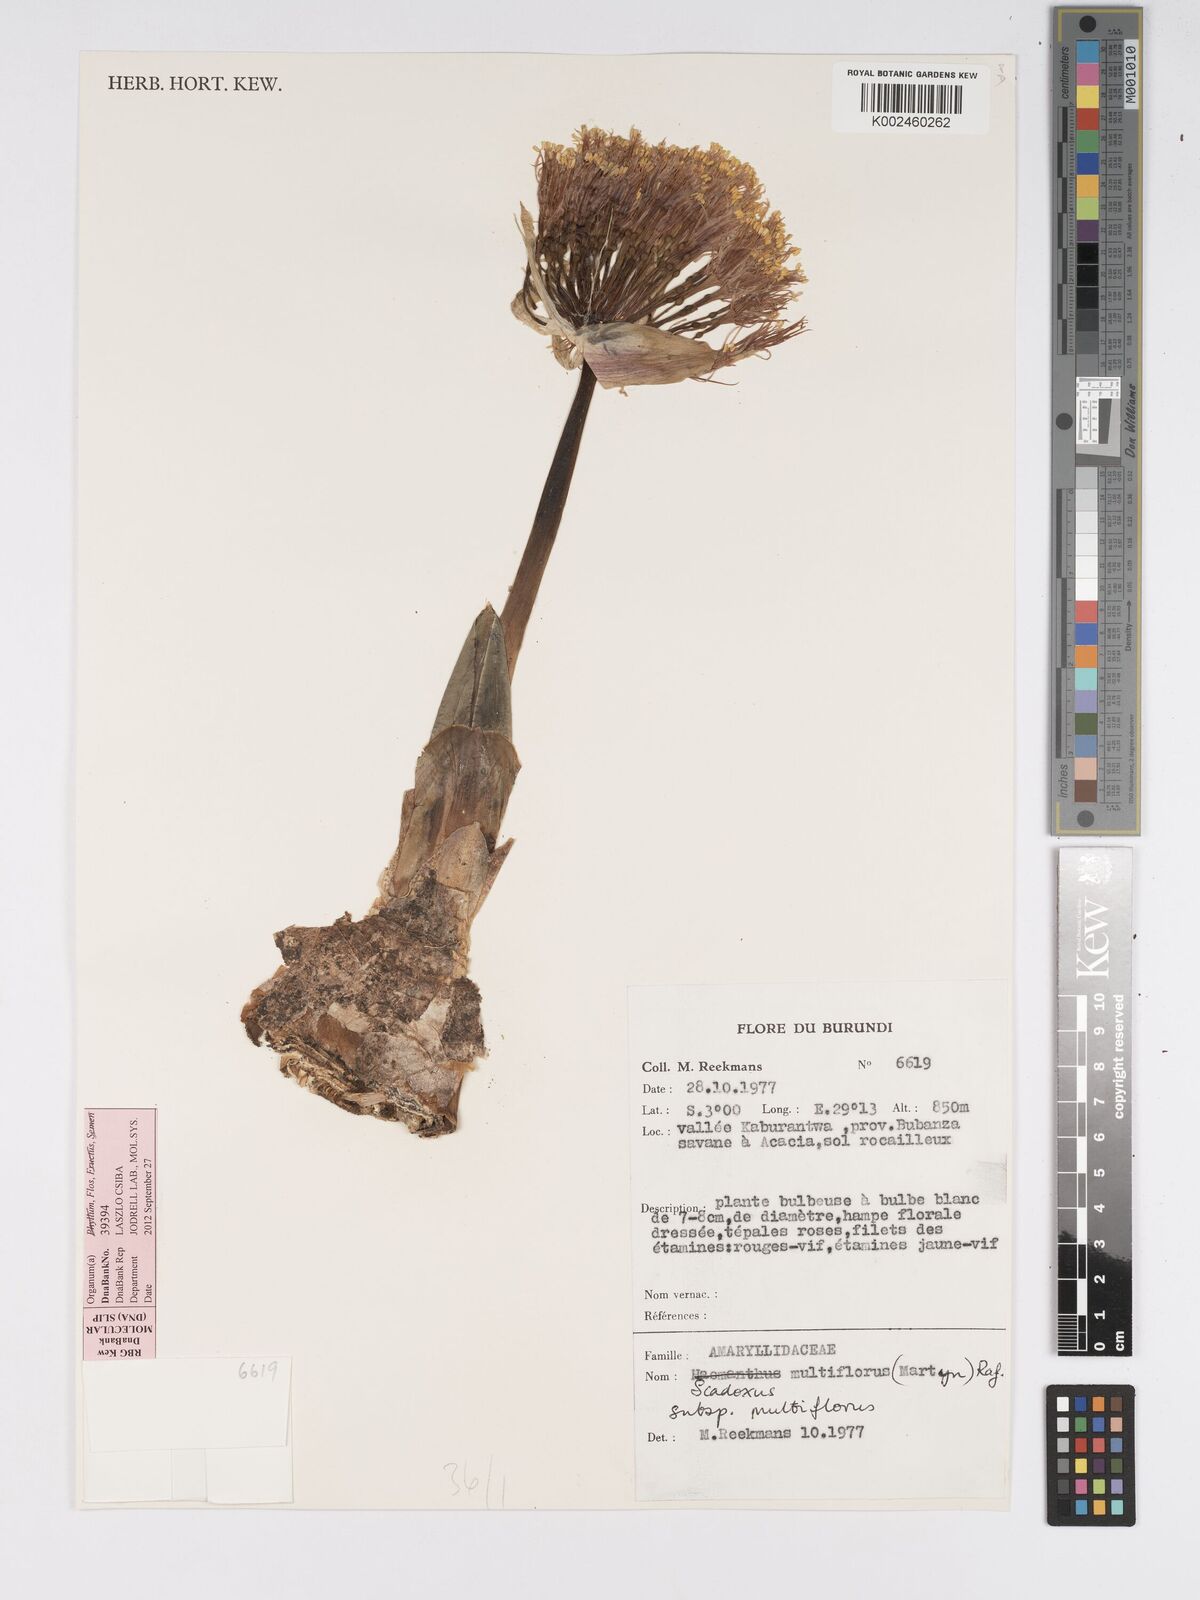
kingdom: Plantae
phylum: Tracheophyta
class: Liliopsida
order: Asparagales
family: Amaryllidaceae
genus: Scadoxus
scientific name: Scadoxus multiflorus
